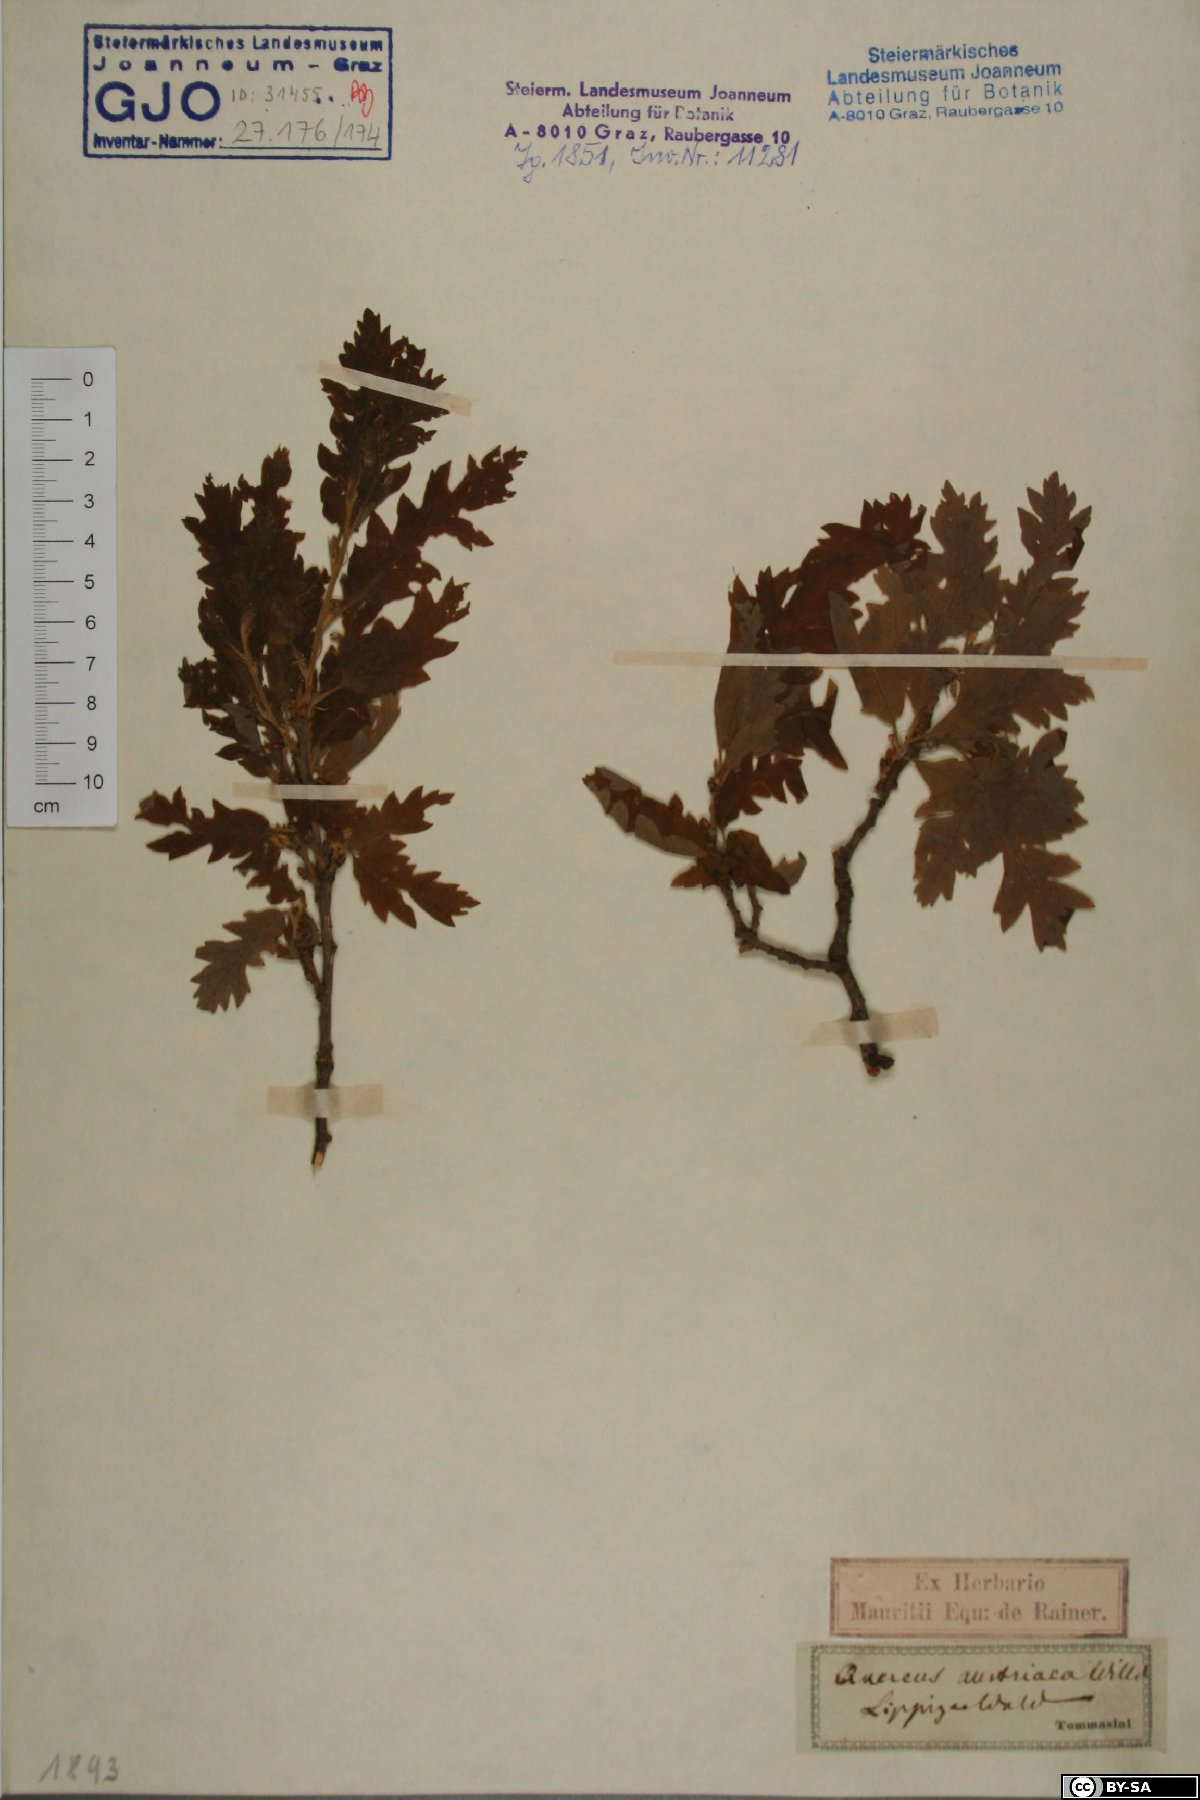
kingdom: Plantae
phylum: Tracheophyta
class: Magnoliopsida
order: Fagales
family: Fagaceae
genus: Quercus
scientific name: Quercus cerris
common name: Turkey oak
